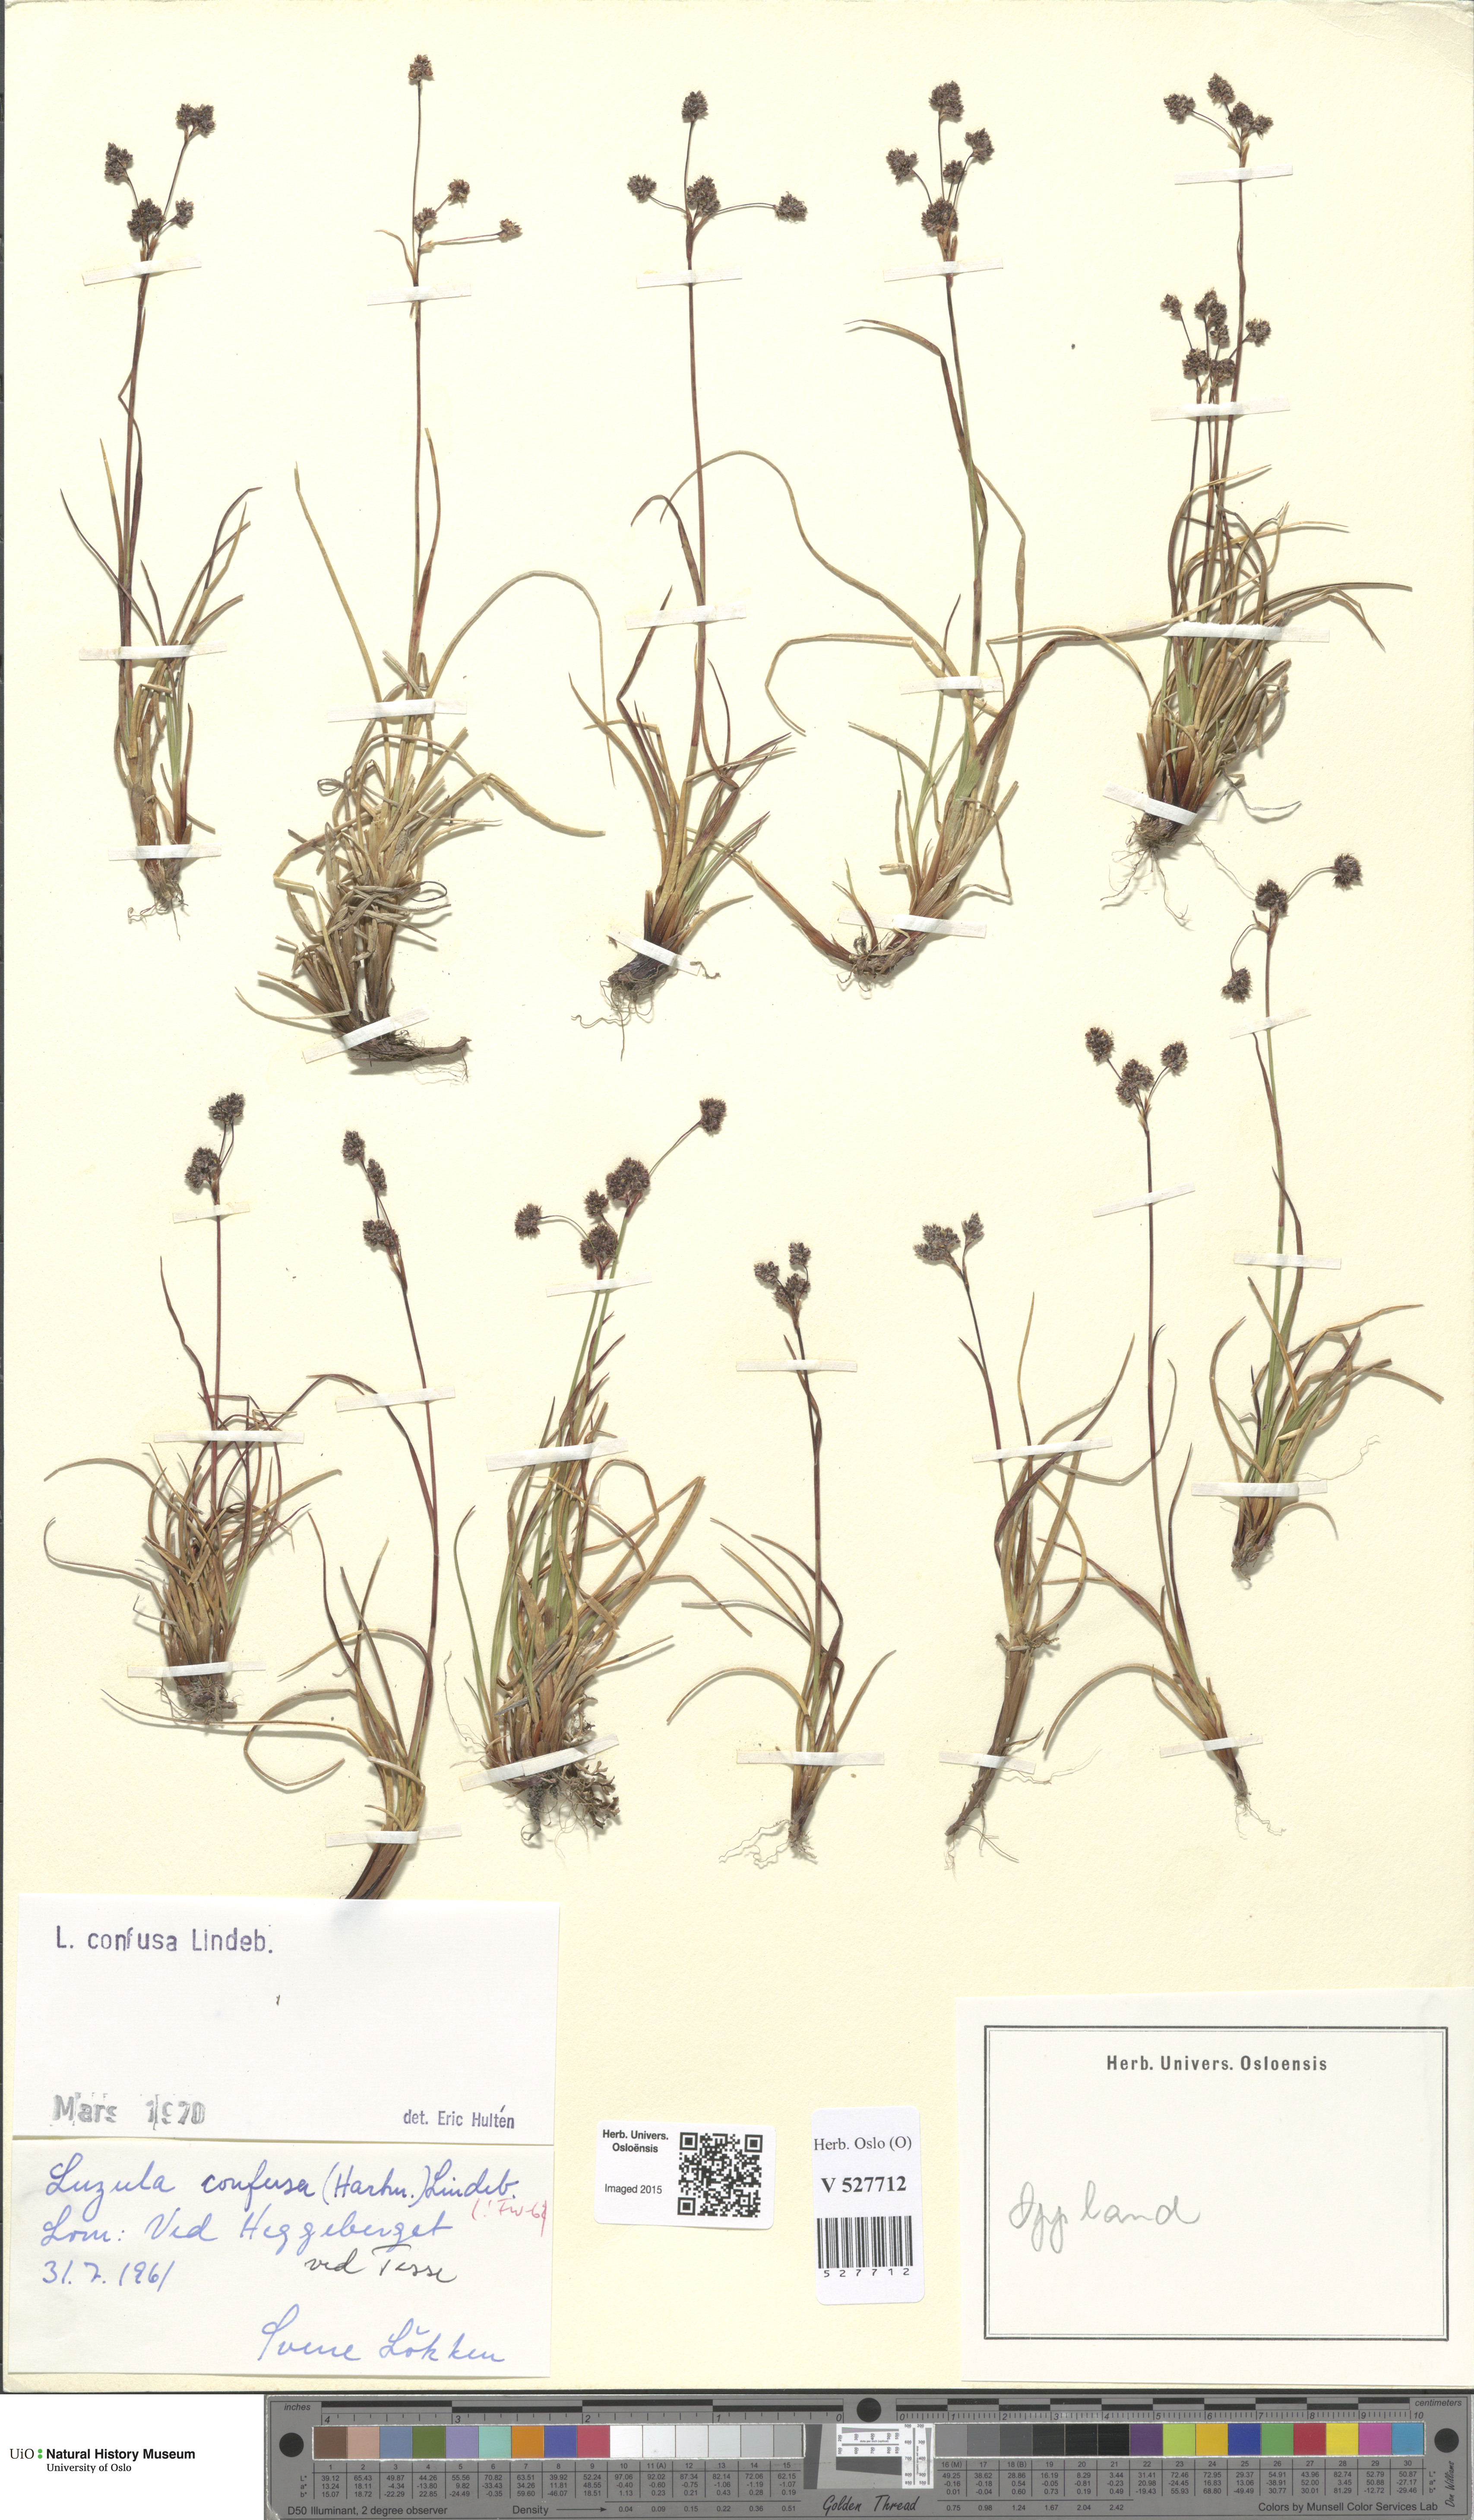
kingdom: Plantae
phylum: Tracheophyta
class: Liliopsida
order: Poales
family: Juncaceae
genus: Luzula
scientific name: Luzula confusa
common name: Northern wood rush
